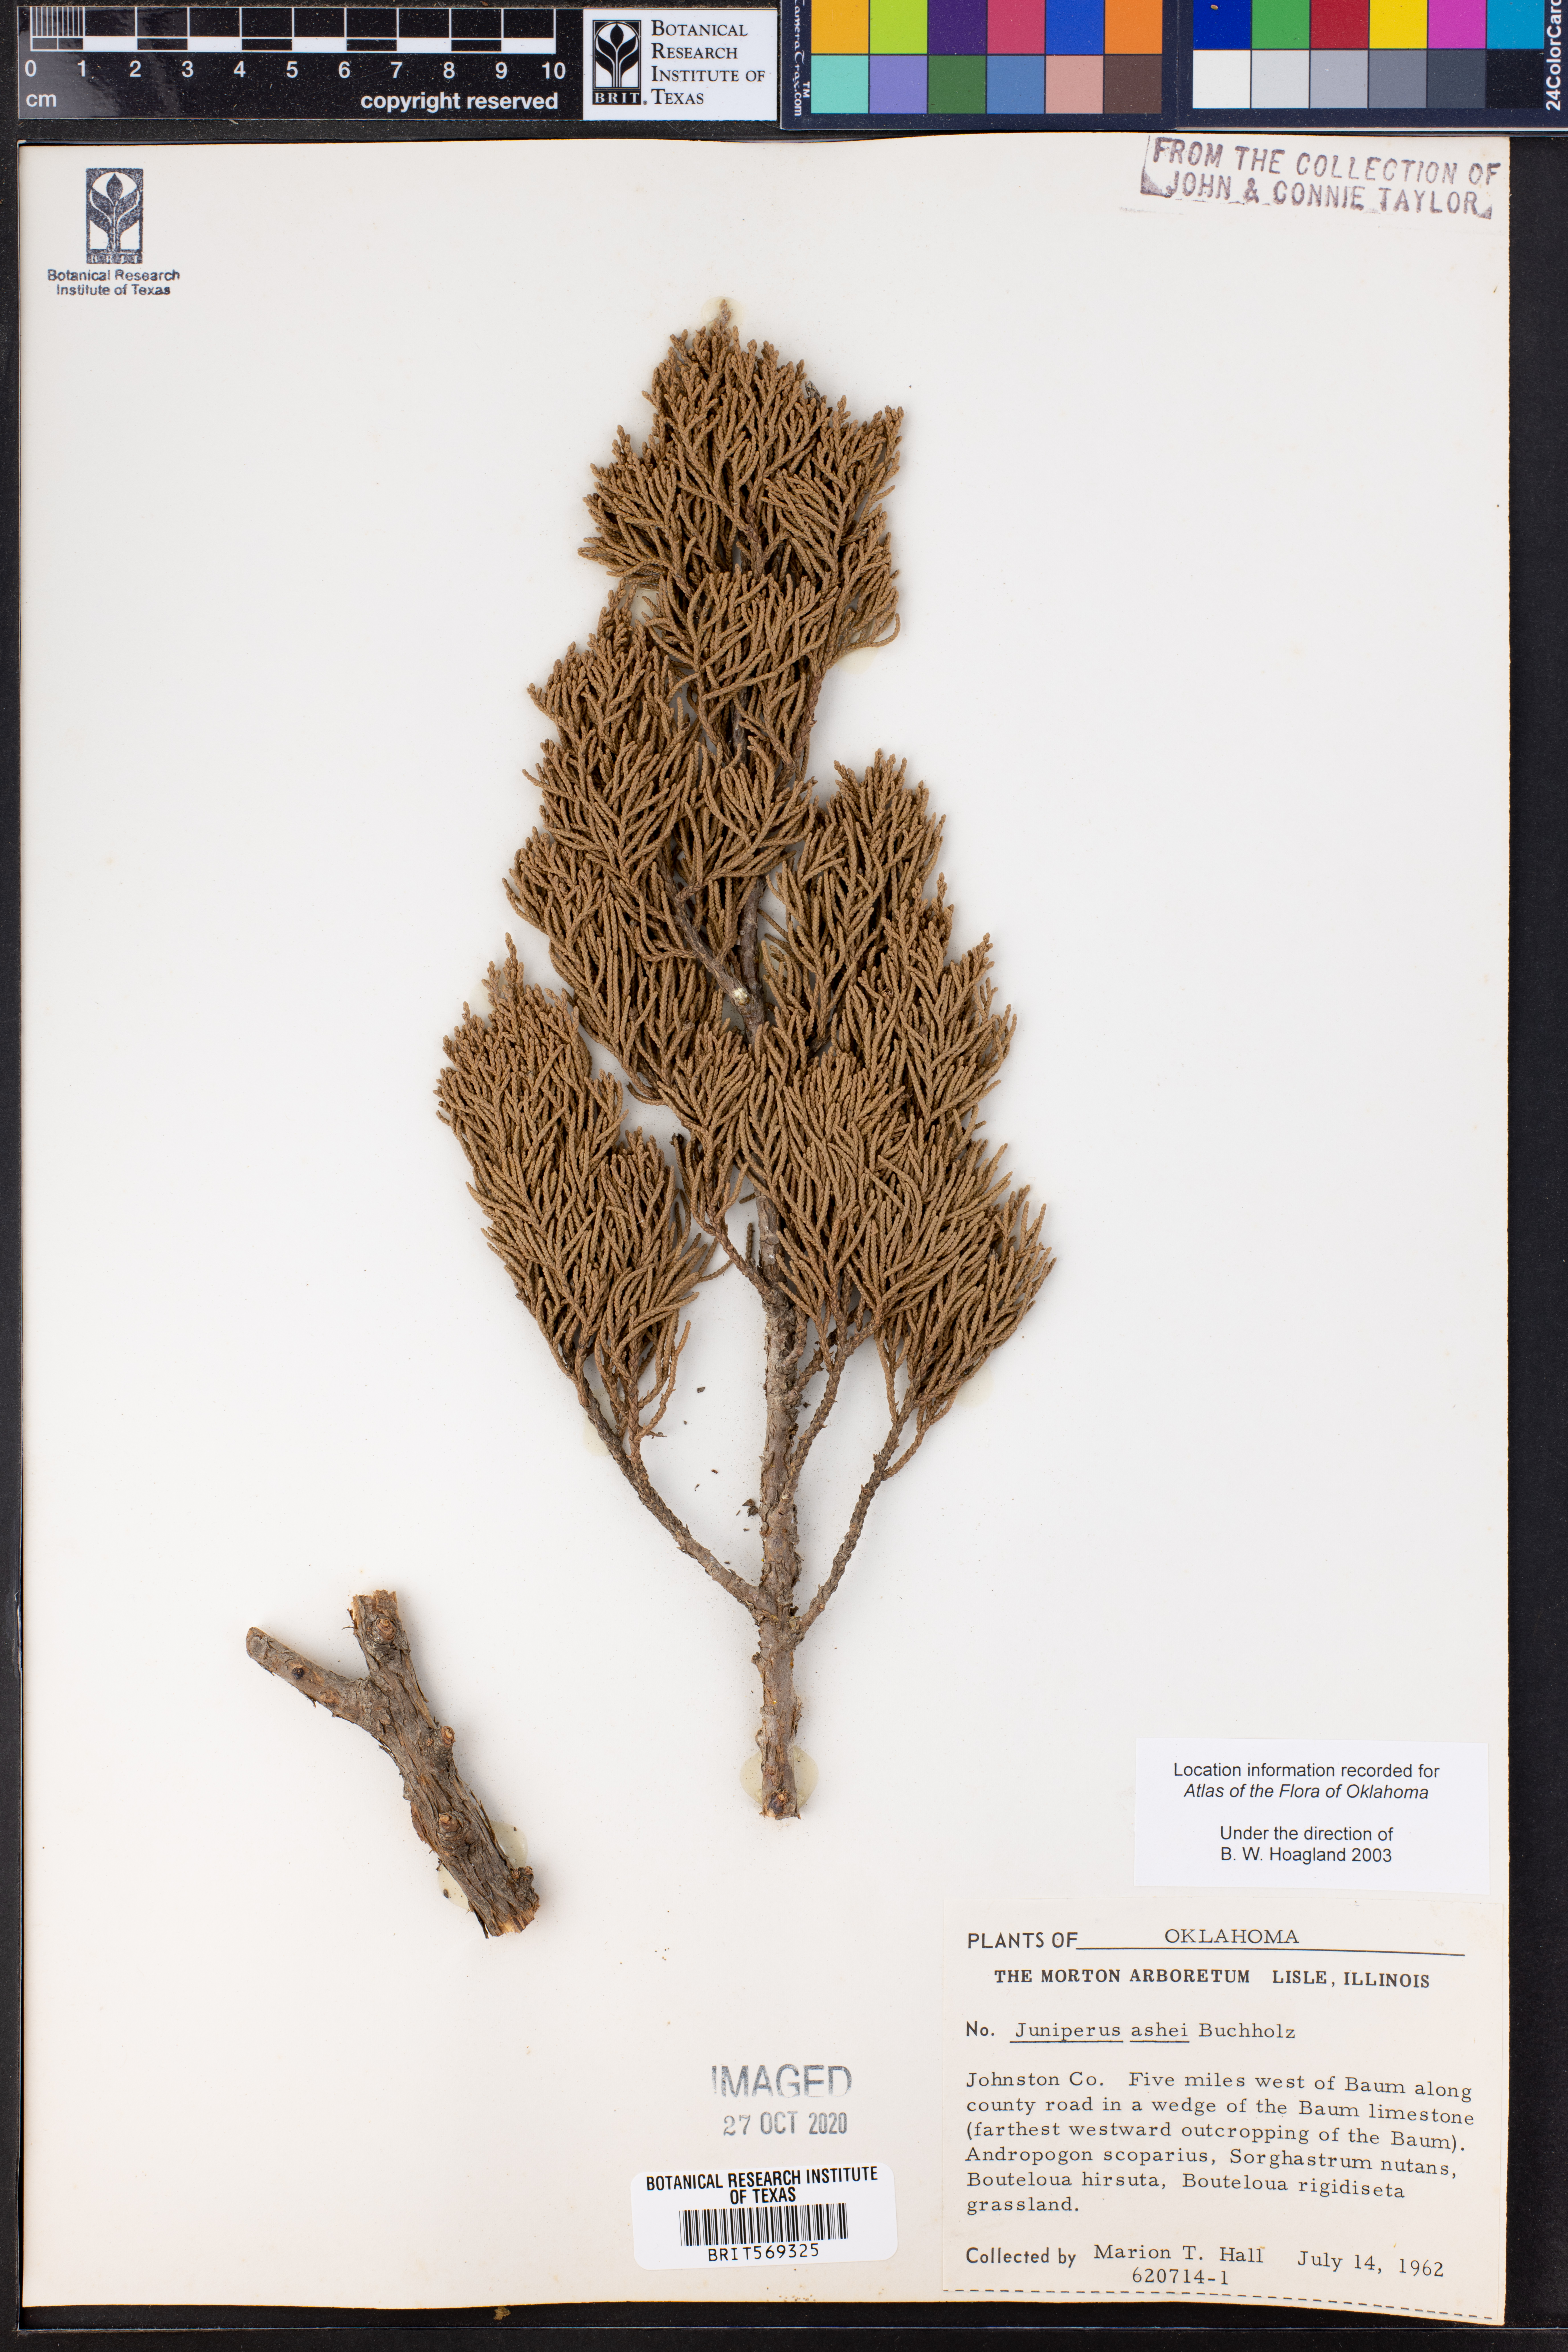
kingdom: Plantae
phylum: Tracheophyta
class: Pinopsida
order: Pinales
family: Cupressaceae
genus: Juniperus
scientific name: Juniperus ashei
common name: Mexican juniper
